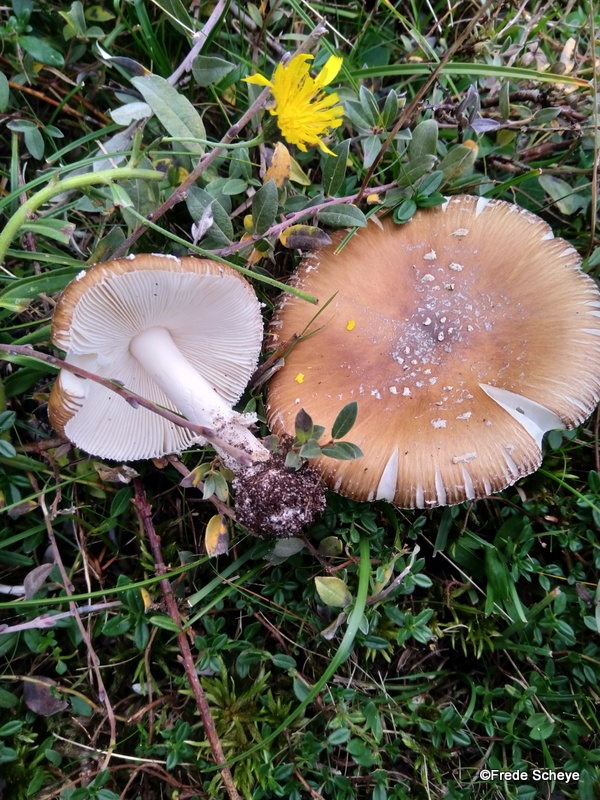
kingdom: Fungi
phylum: Basidiomycota
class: Agaricomycetes
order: Agaricales
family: Amanitaceae
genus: Amanita
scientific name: Amanita pantherina
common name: panter-fluesvamp
